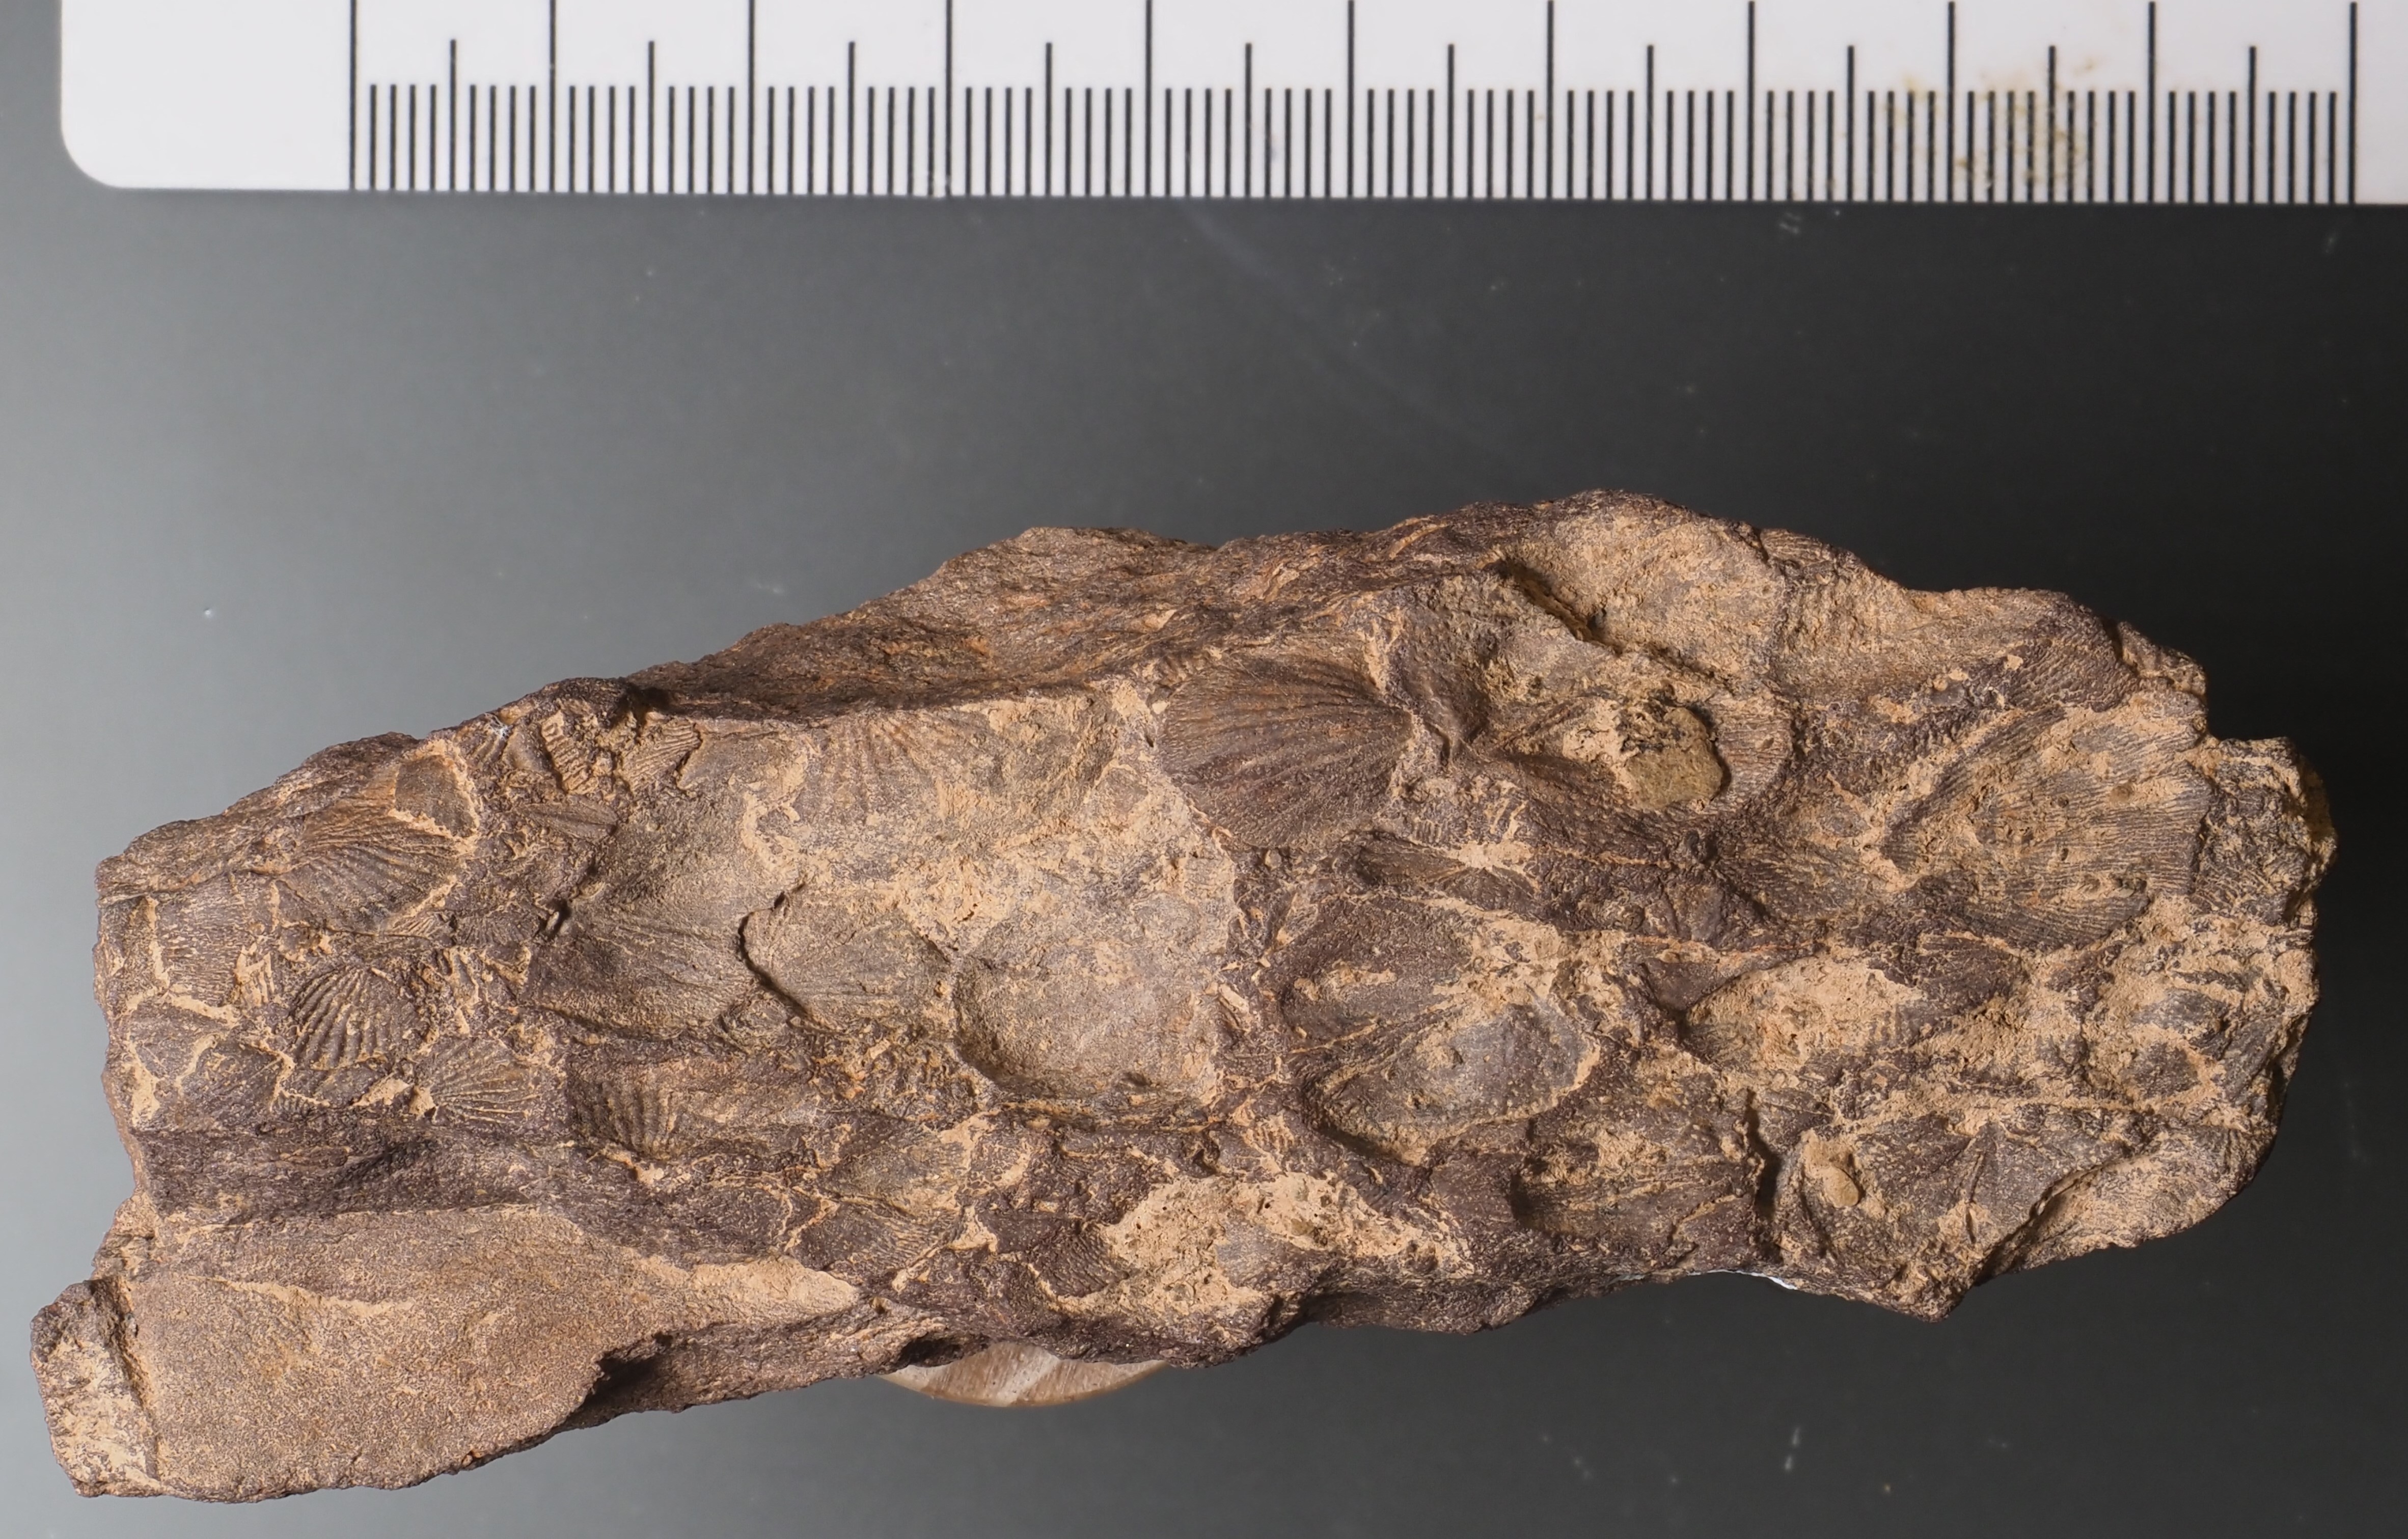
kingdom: Animalia
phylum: Brachiopoda
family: Stropheodontidae
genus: Leptostrophia
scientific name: Leptostrophia
